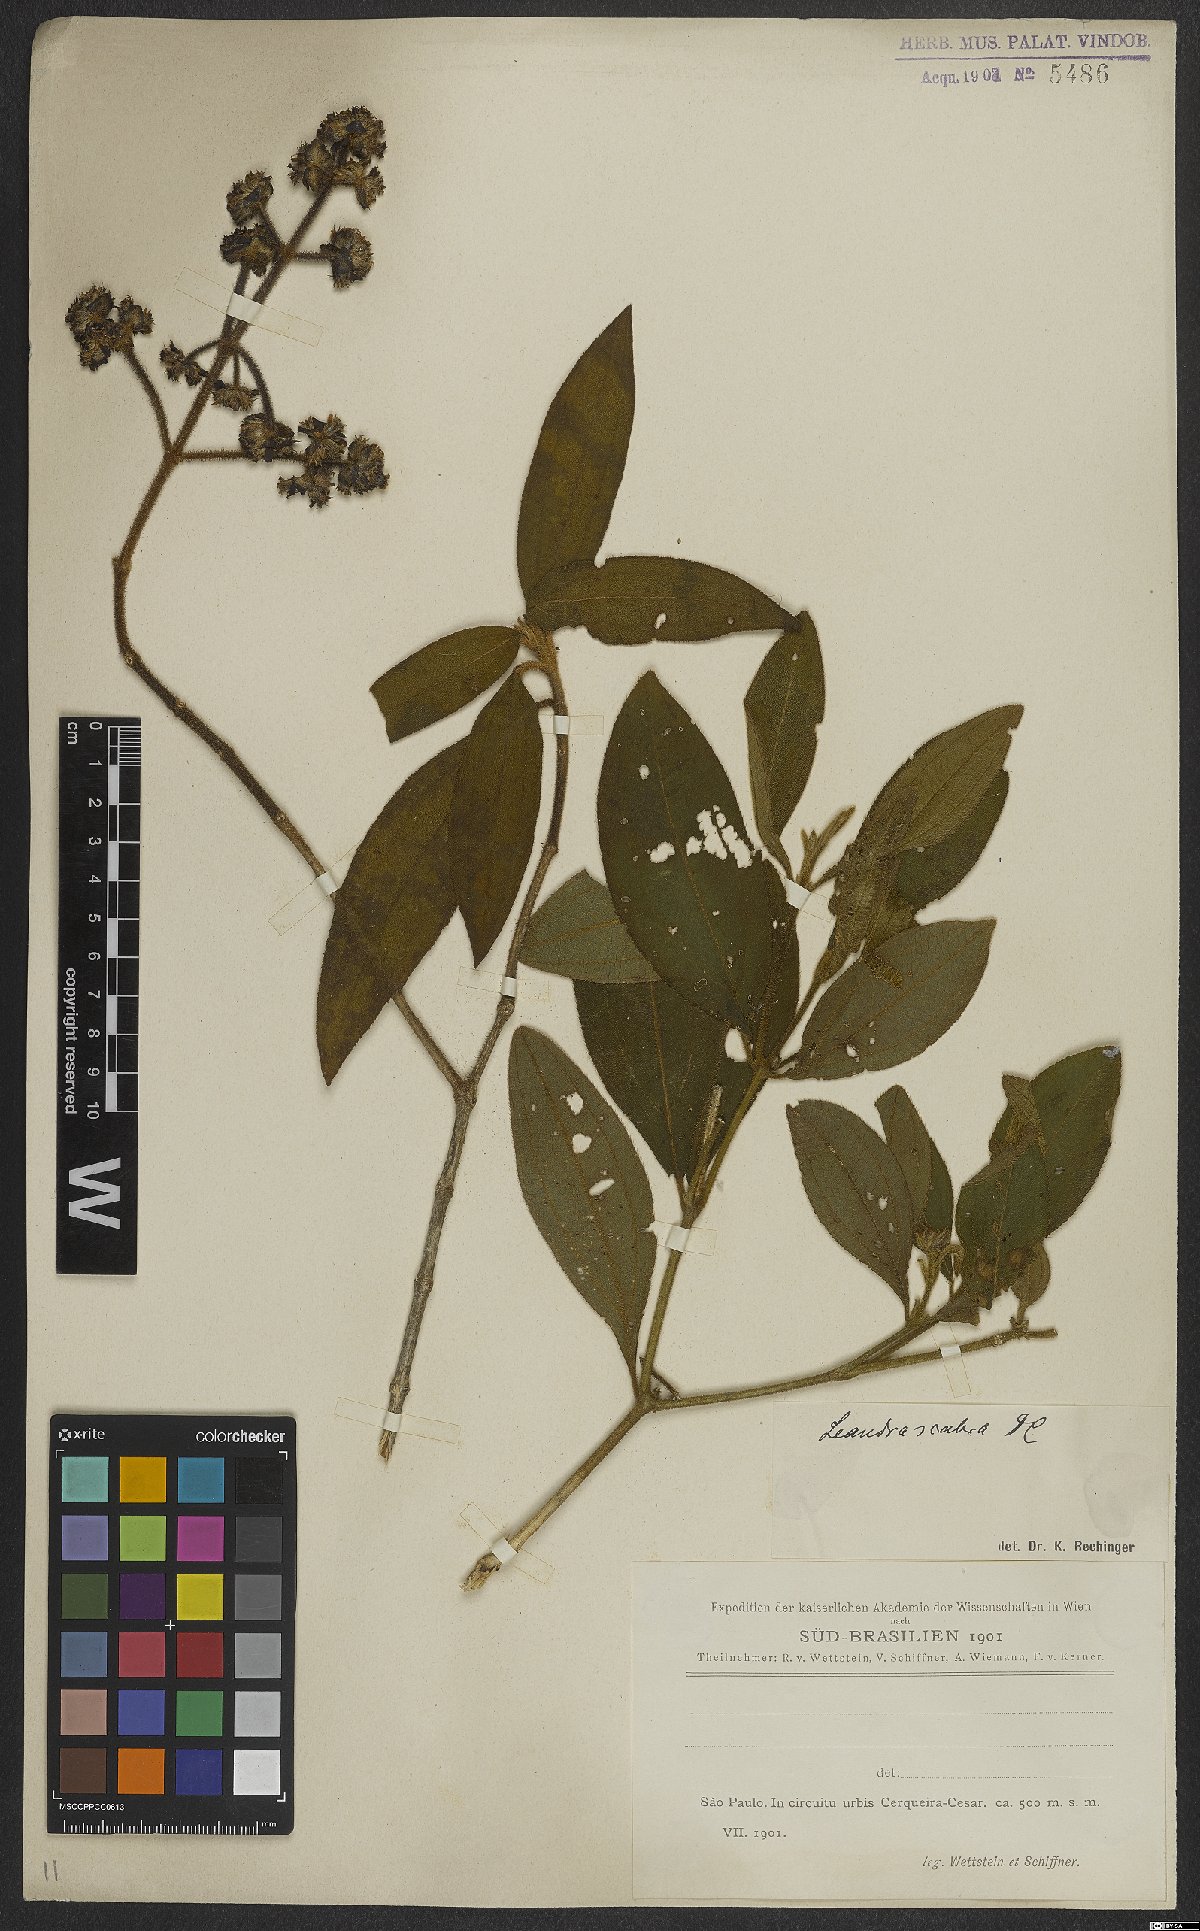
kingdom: Plantae
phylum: Tracheophyta
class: Magnoliopsida
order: Myrtales
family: Melastomataceae
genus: Miconia
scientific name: Miconia melastomoides
